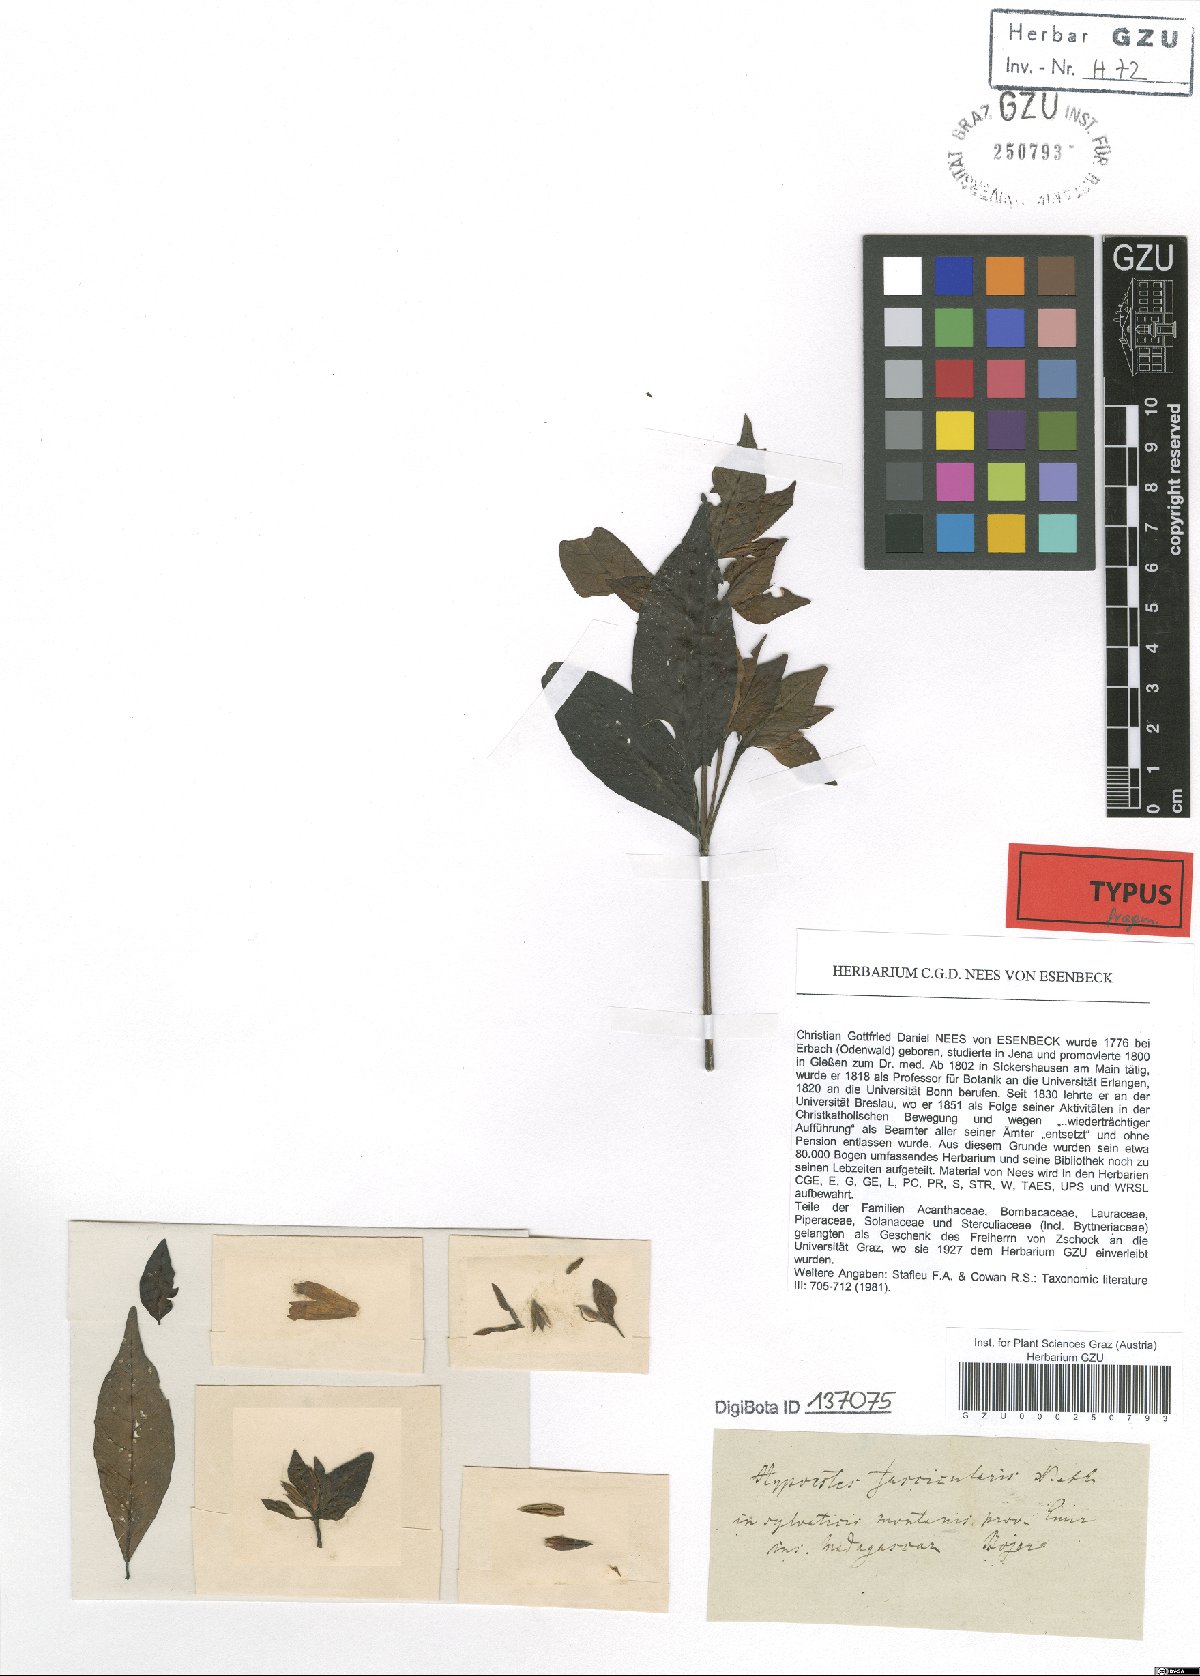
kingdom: Plantae
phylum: Tracheophyta
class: Magnoliopsida
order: Lamiales
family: Acanthaceae
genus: Hypoestes
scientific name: Hypoestes fascicularis
